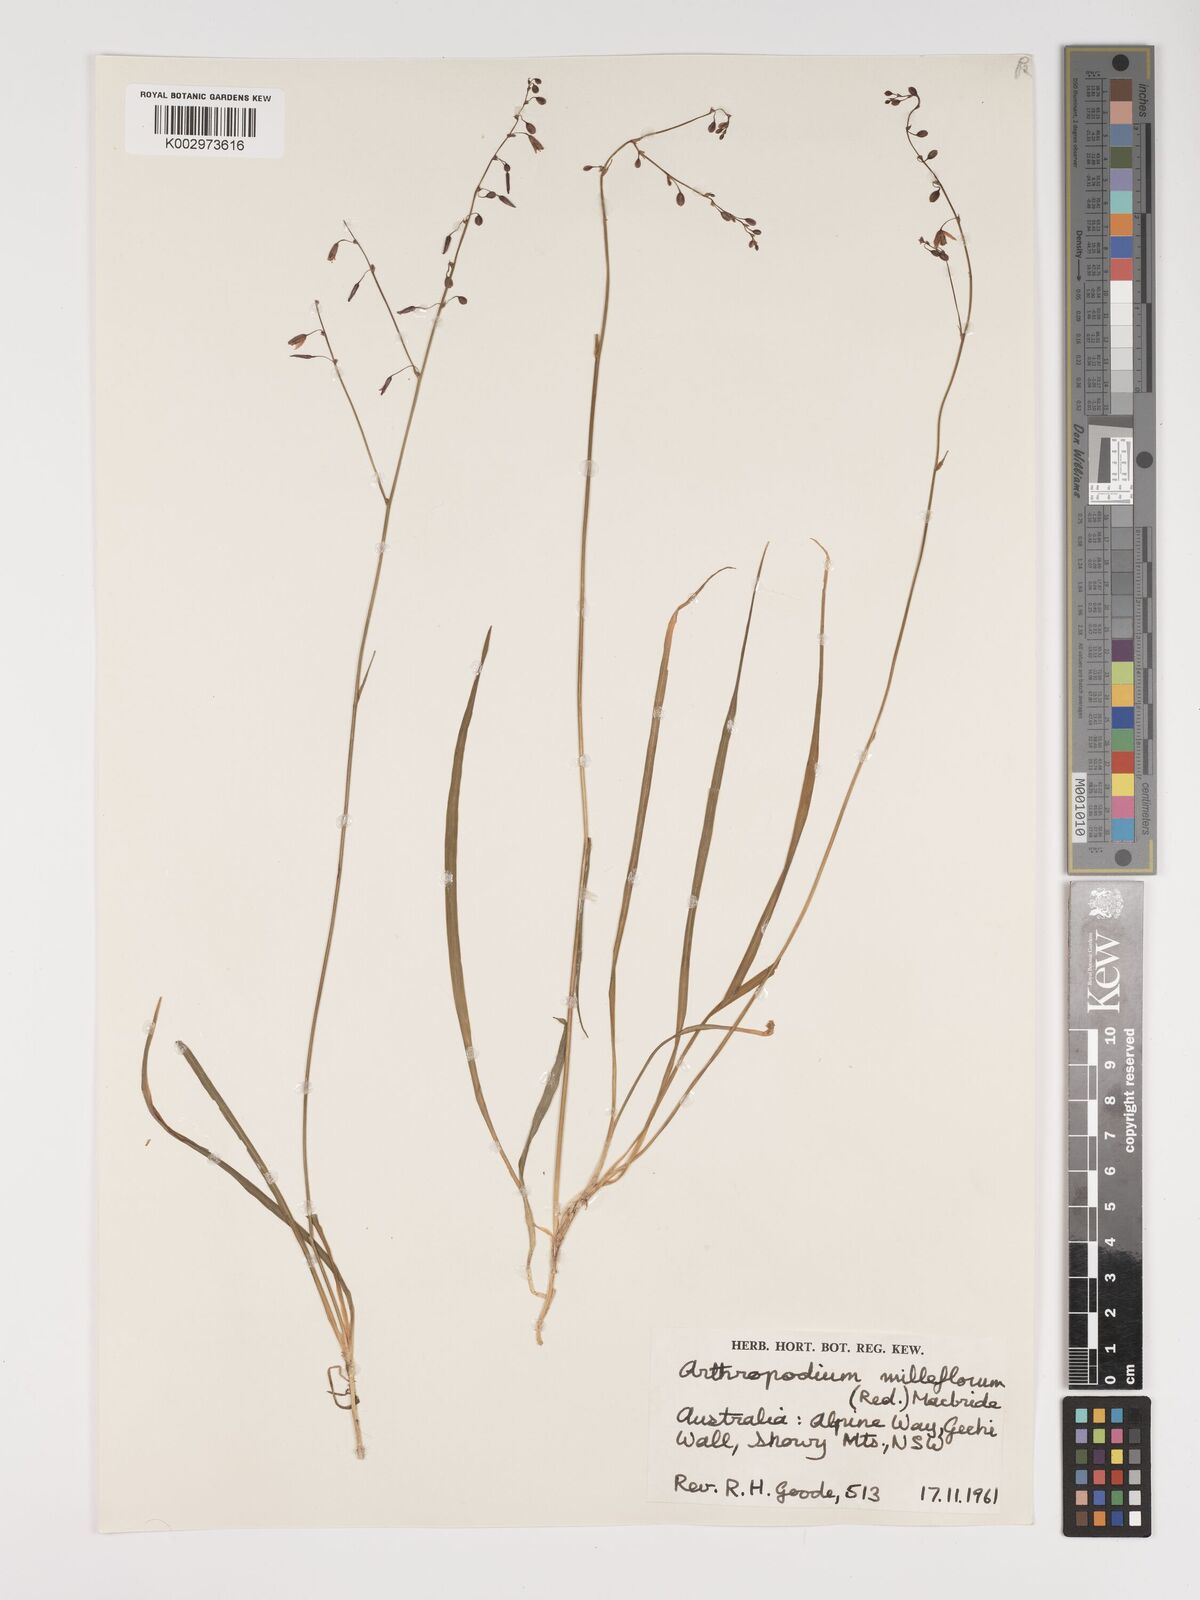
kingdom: Plantae
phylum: Tracheophyta
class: Liliopsida
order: Asparagales
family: Asparagaceae
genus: Arthropodium
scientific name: Arthropodium milleflorum
